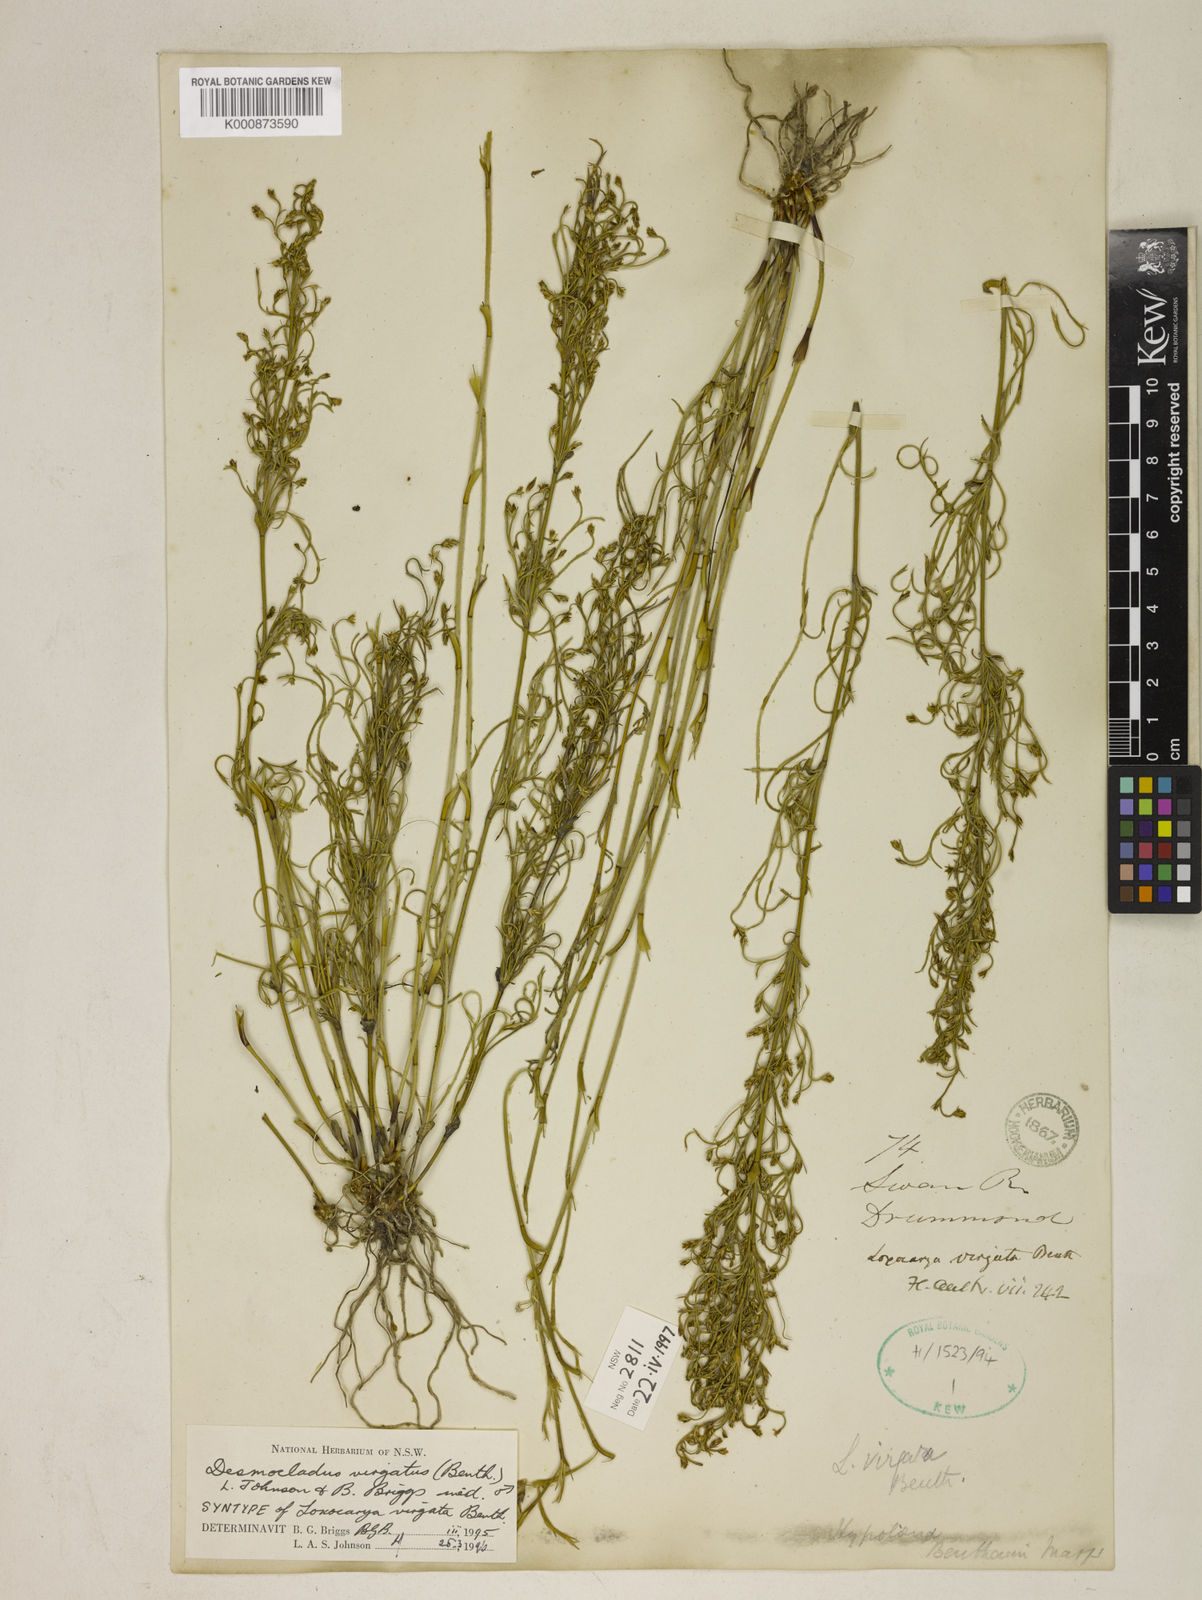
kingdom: Plantae
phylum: Tracheophyta
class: Liliopsida
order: Poales
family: Restionaceae
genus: Desmocladus
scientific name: Desmocladus virgatus
